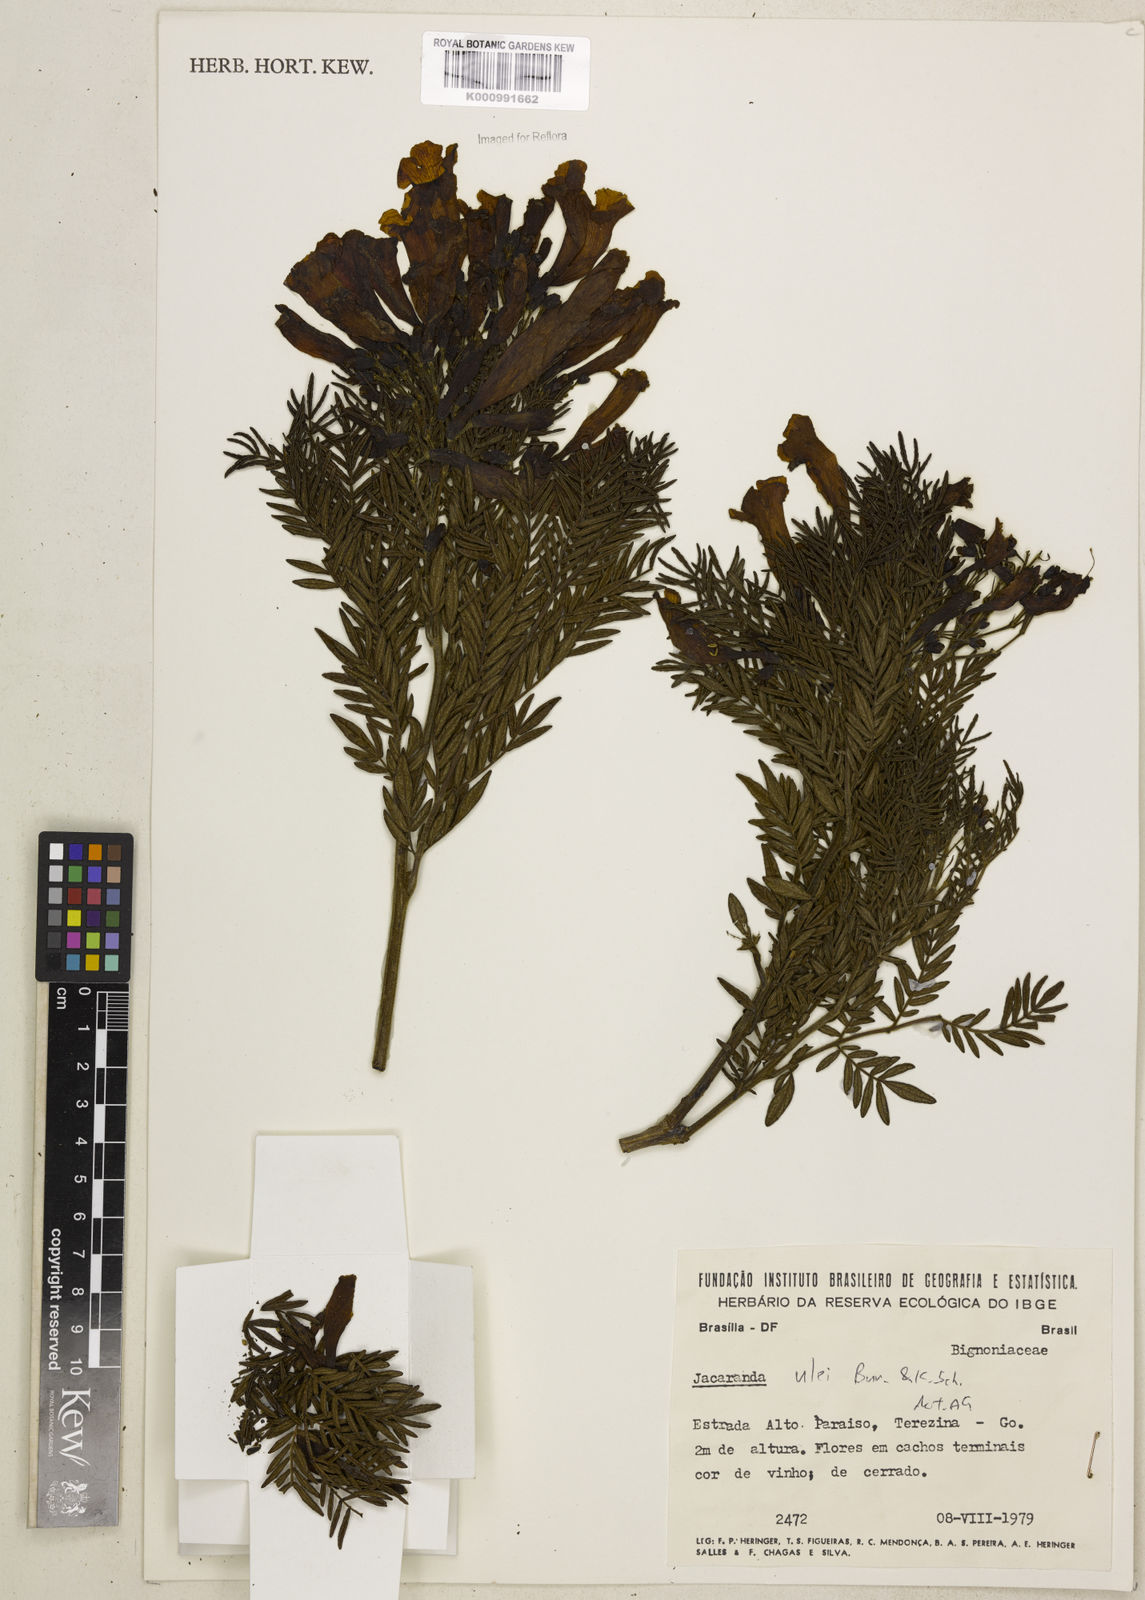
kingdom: Plantae
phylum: Tracheophyta
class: Magnoliopsida
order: Lamiales
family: Bignoniaceae
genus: Jacaranda
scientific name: Jacaranda ulei
